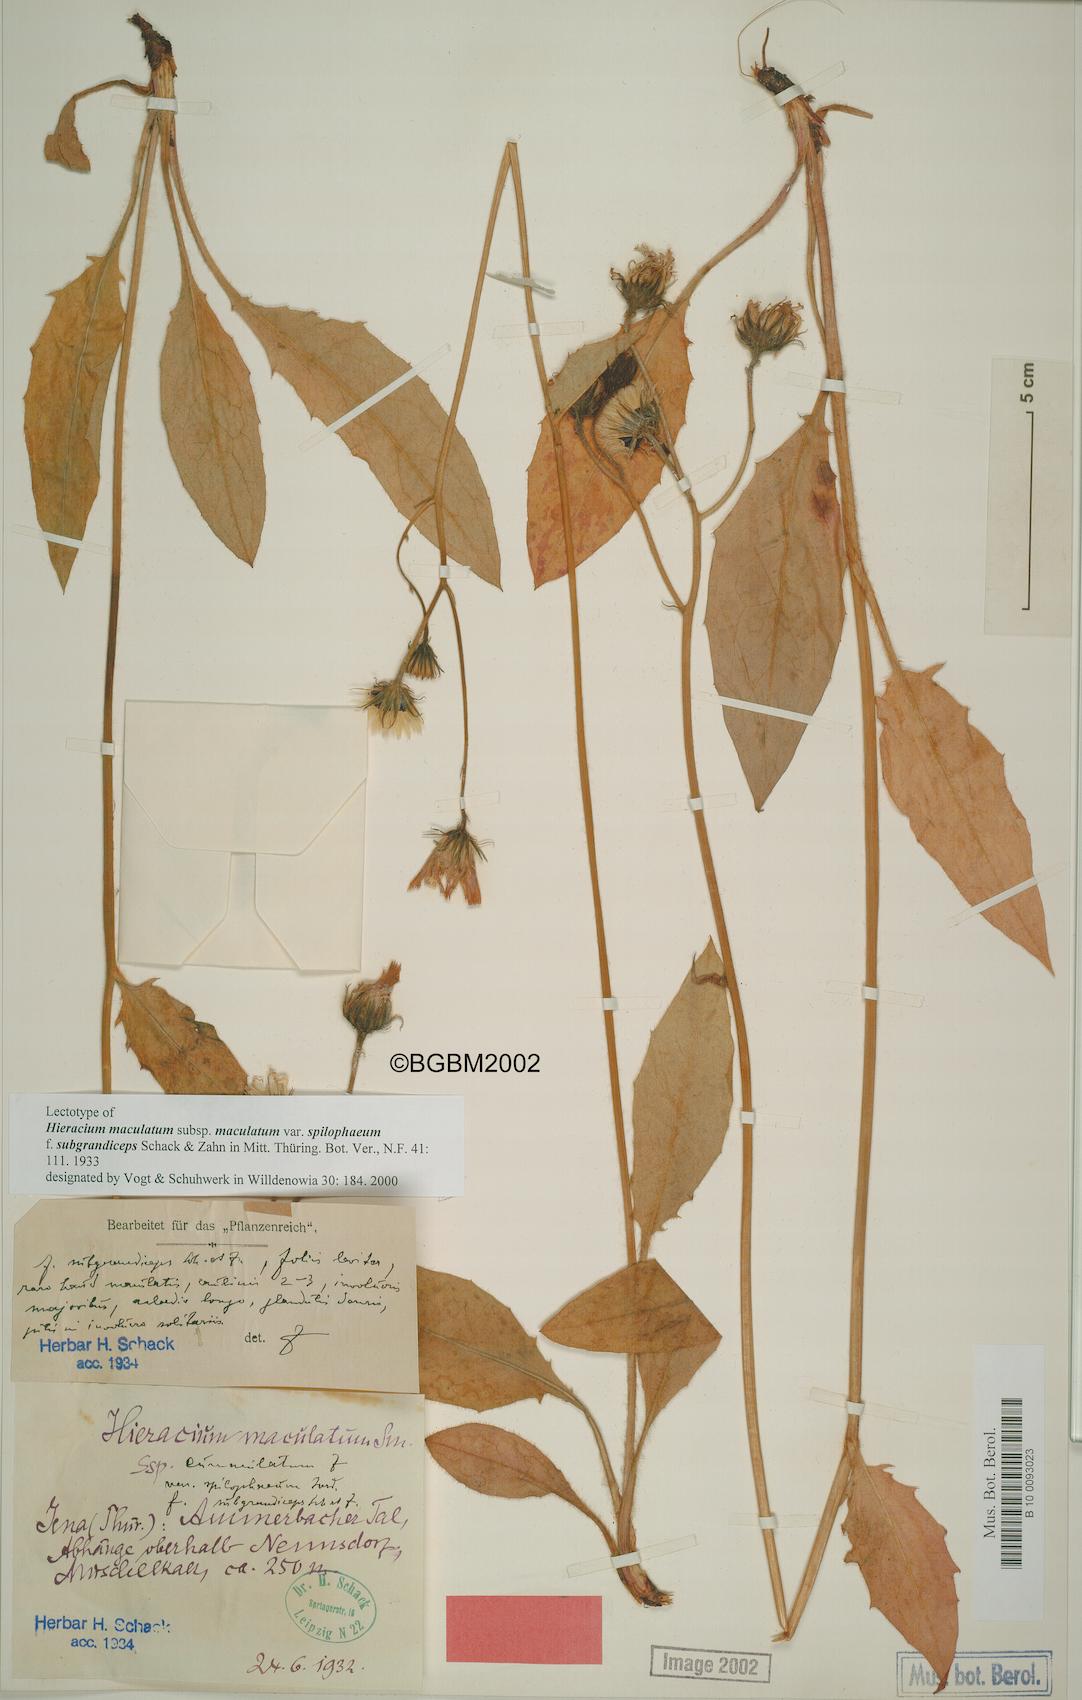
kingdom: Plantae
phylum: Tracheophyta
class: Magnoliopsida
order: Asterales
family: Asteraceae
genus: Hieracium
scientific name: Hieracium maculatum
